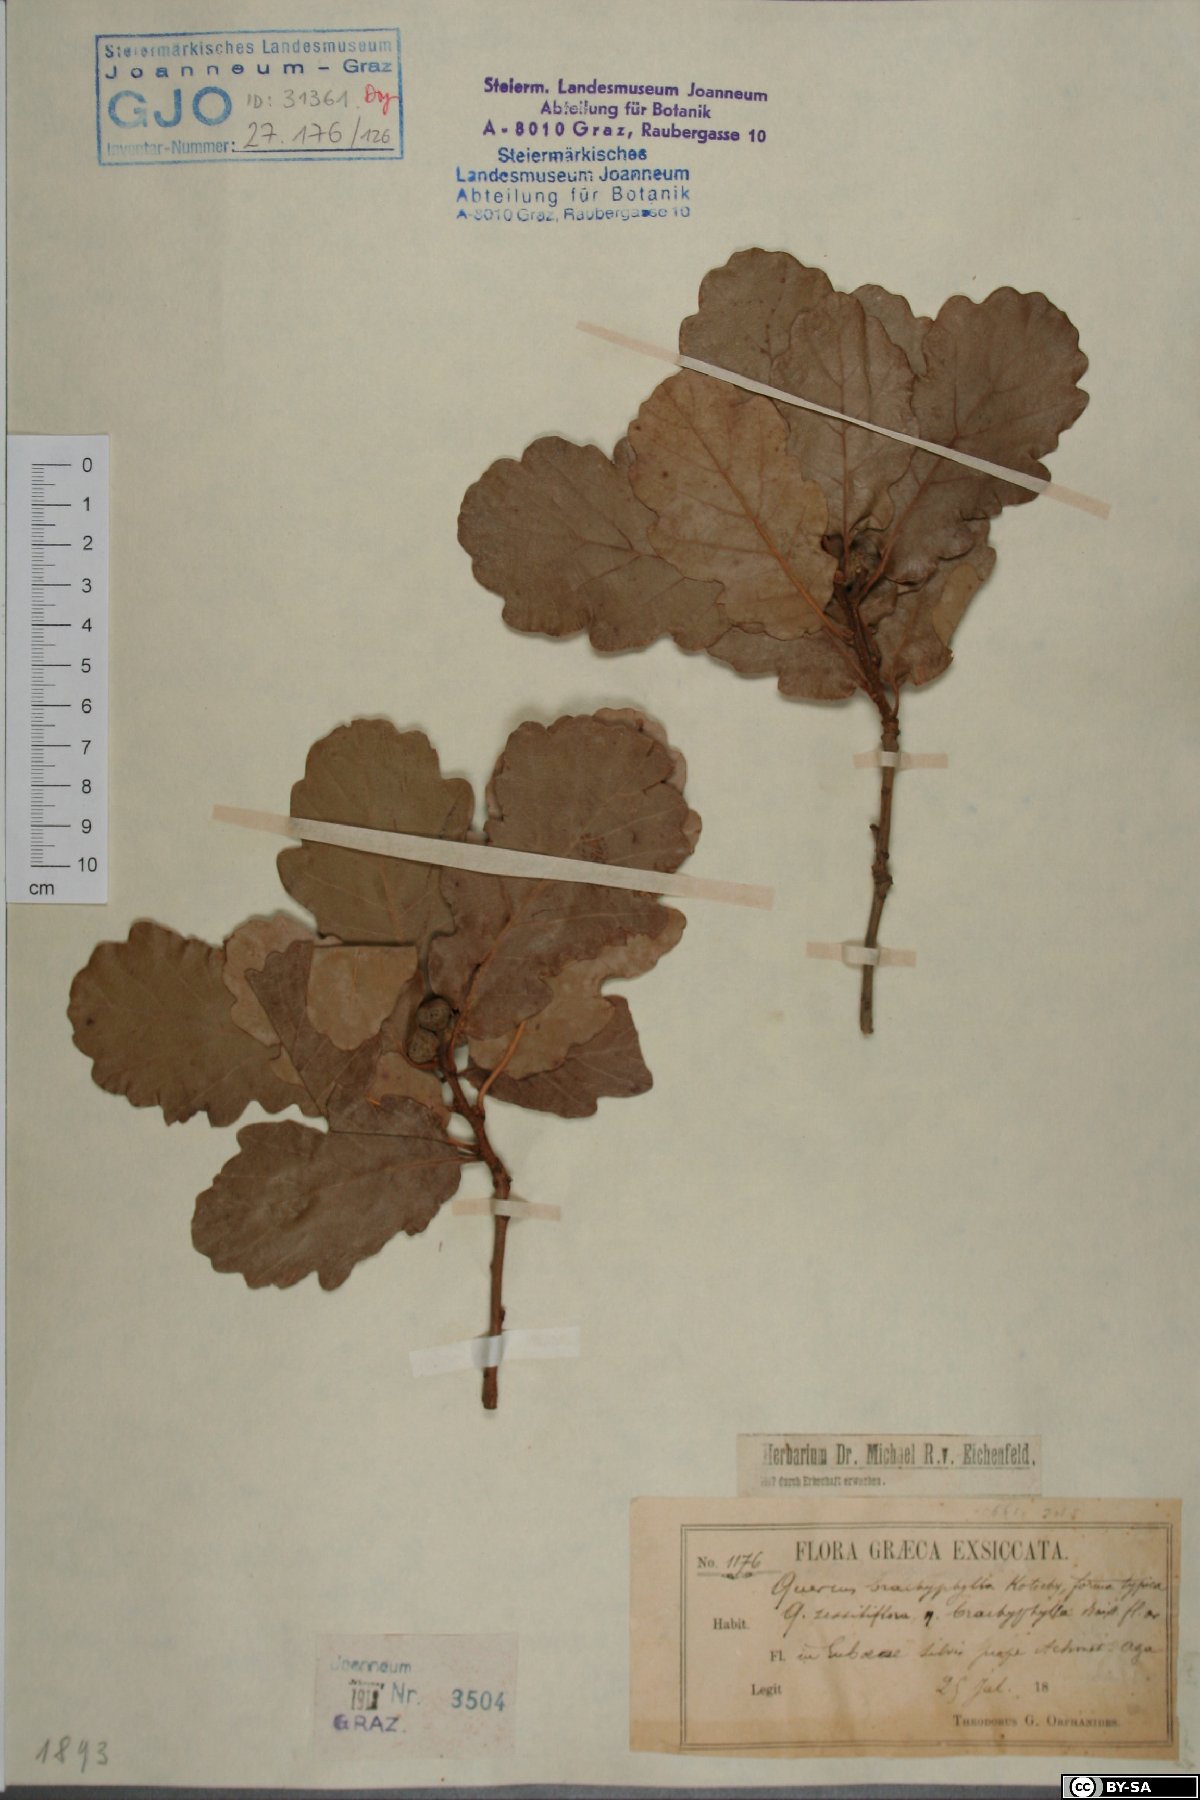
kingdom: Plantae
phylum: Tracheophyta
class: Magnoliopsida
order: Fagales
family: Fagaceae
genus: Quercus
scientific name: Quercus pubescens
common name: Downy oak
